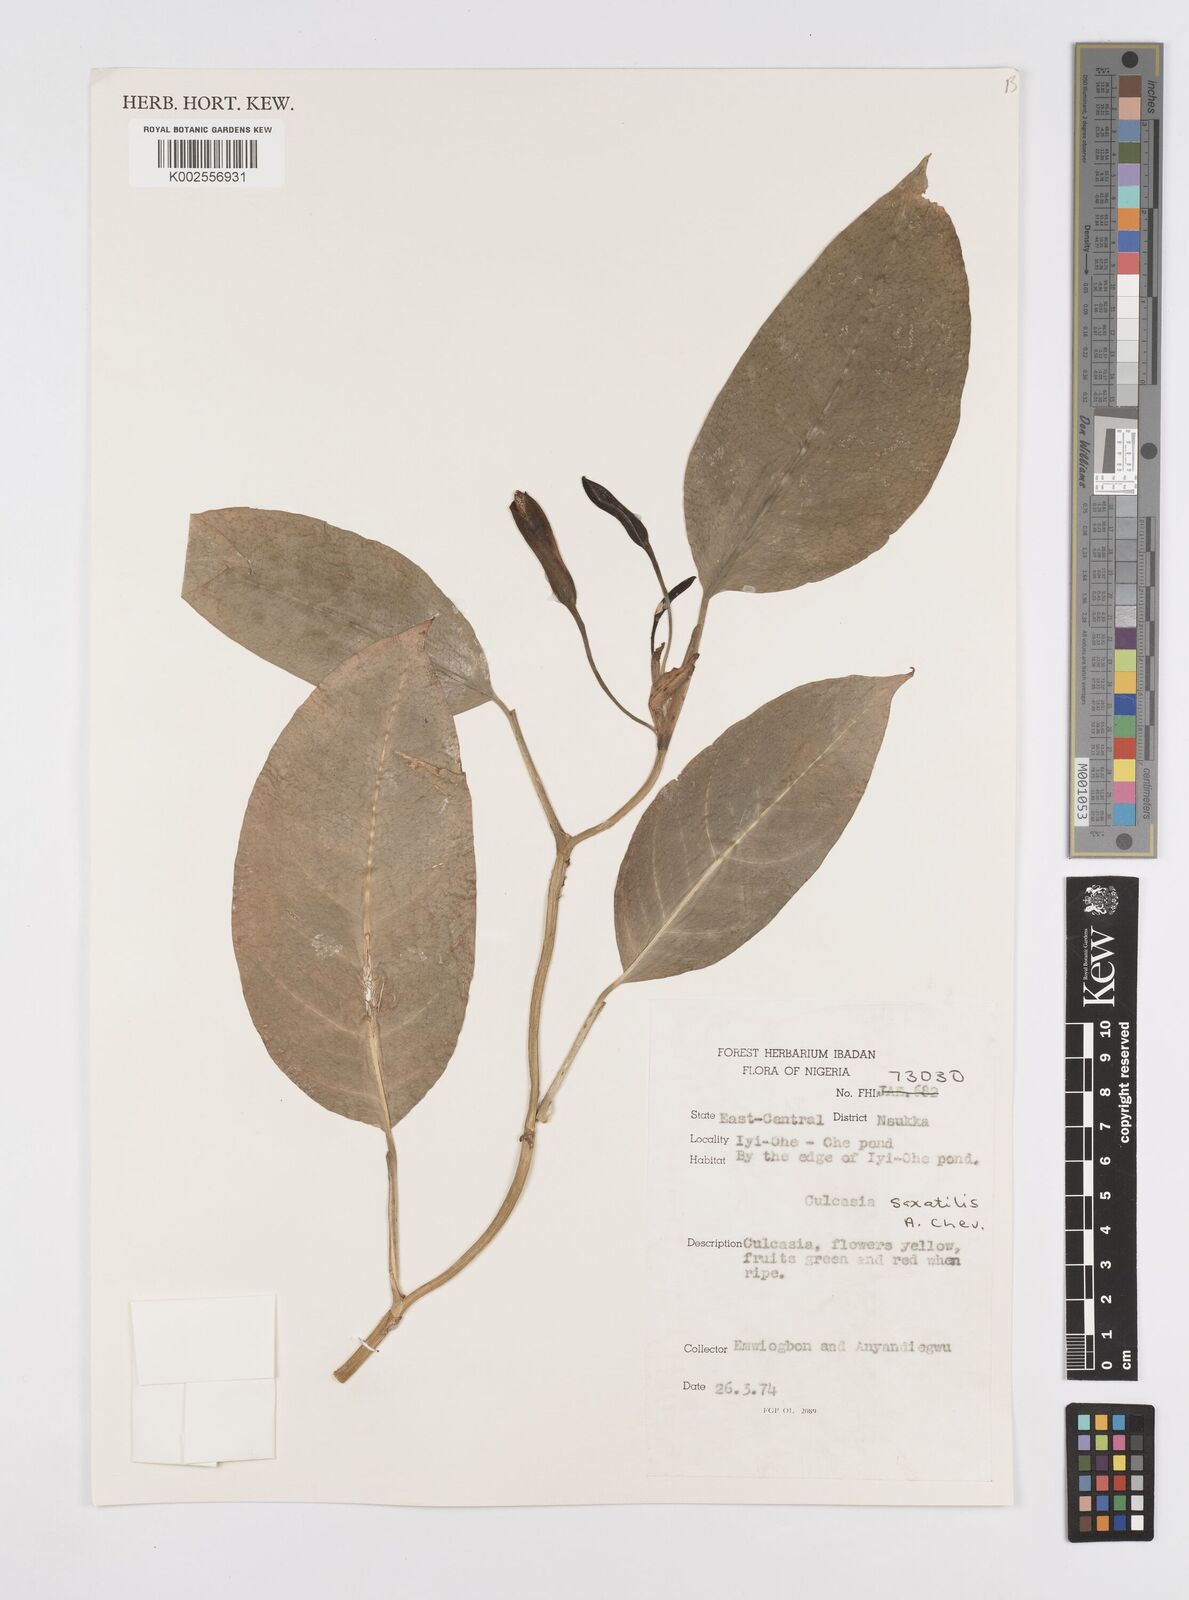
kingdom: Plantae
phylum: Tracheophyta
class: Liliopsida
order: Alismatales
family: Araceae
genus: Culcasia
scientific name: Culcasia scandens
